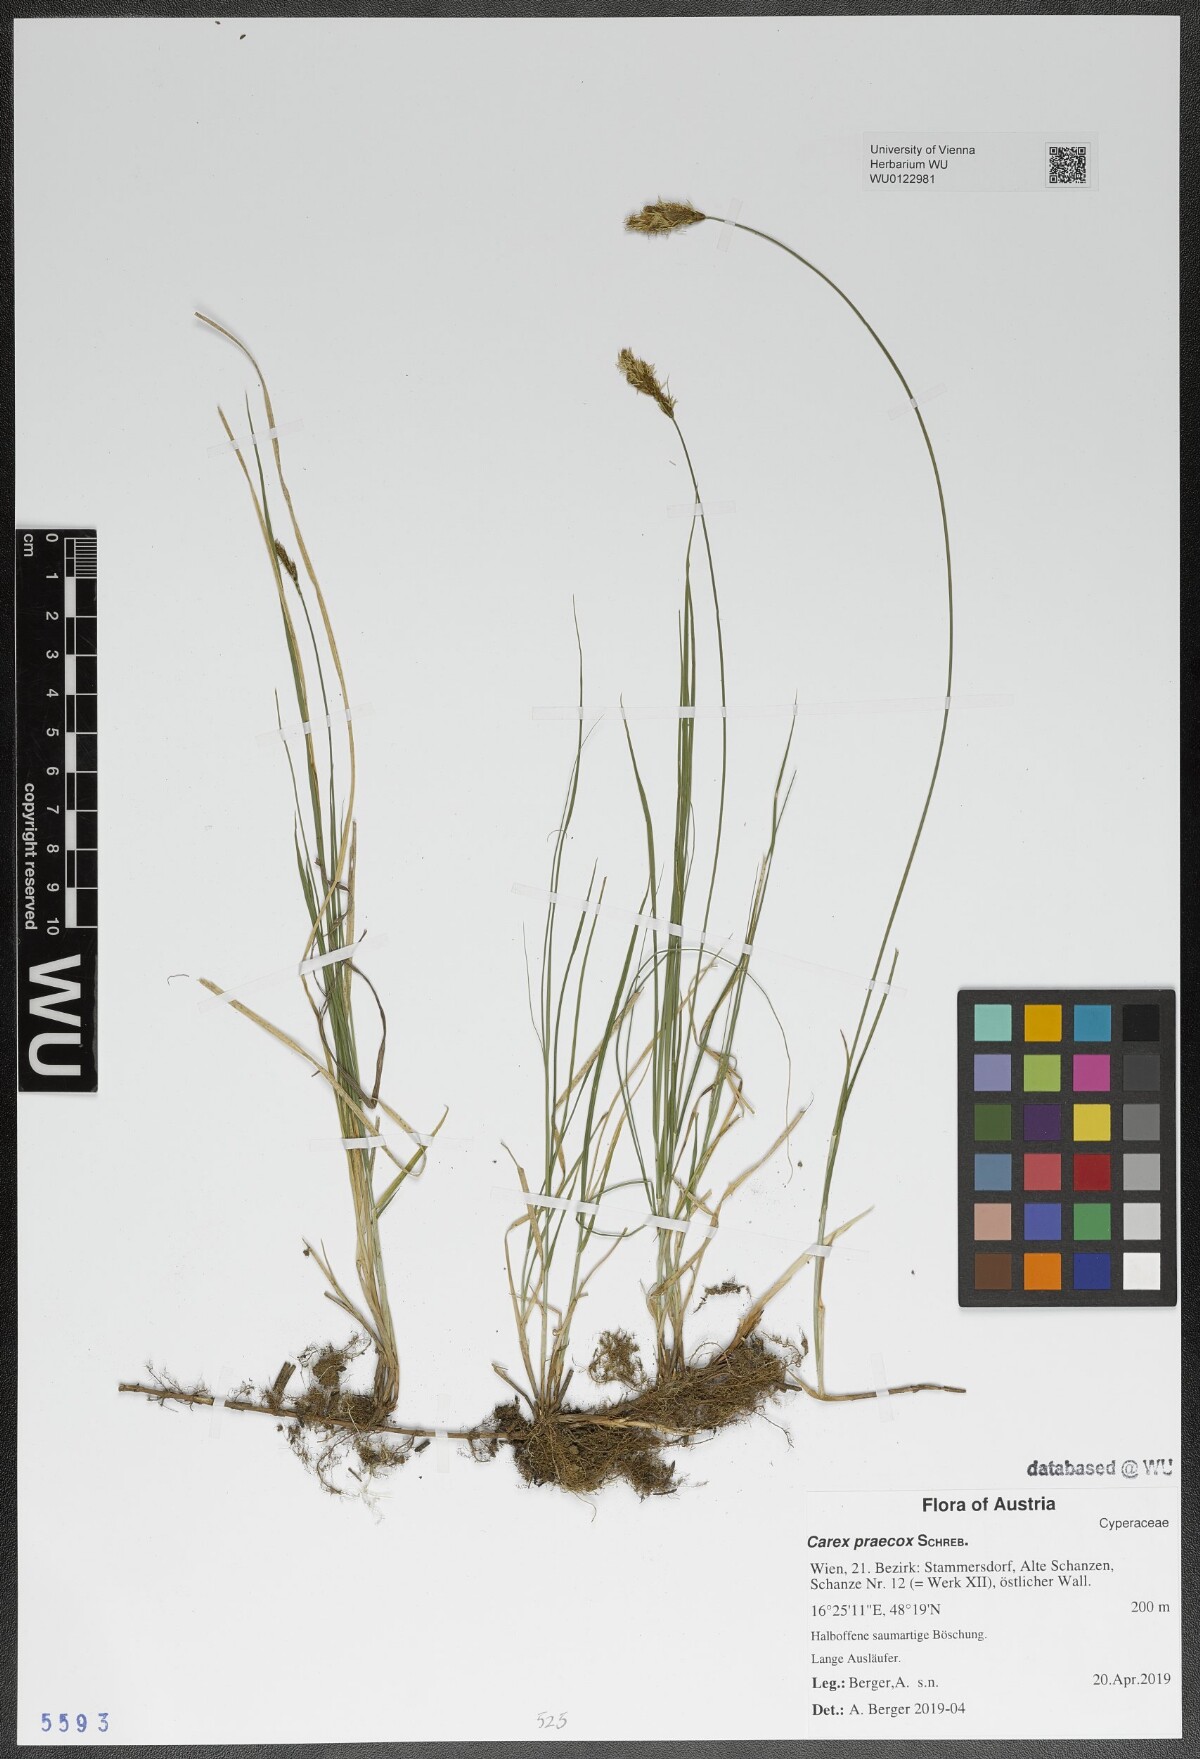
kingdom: Plantae
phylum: Tracheophyta
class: Liliopsida
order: Poales
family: Cyperaceae
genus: Carex
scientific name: Carex praecox
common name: Early sedge
